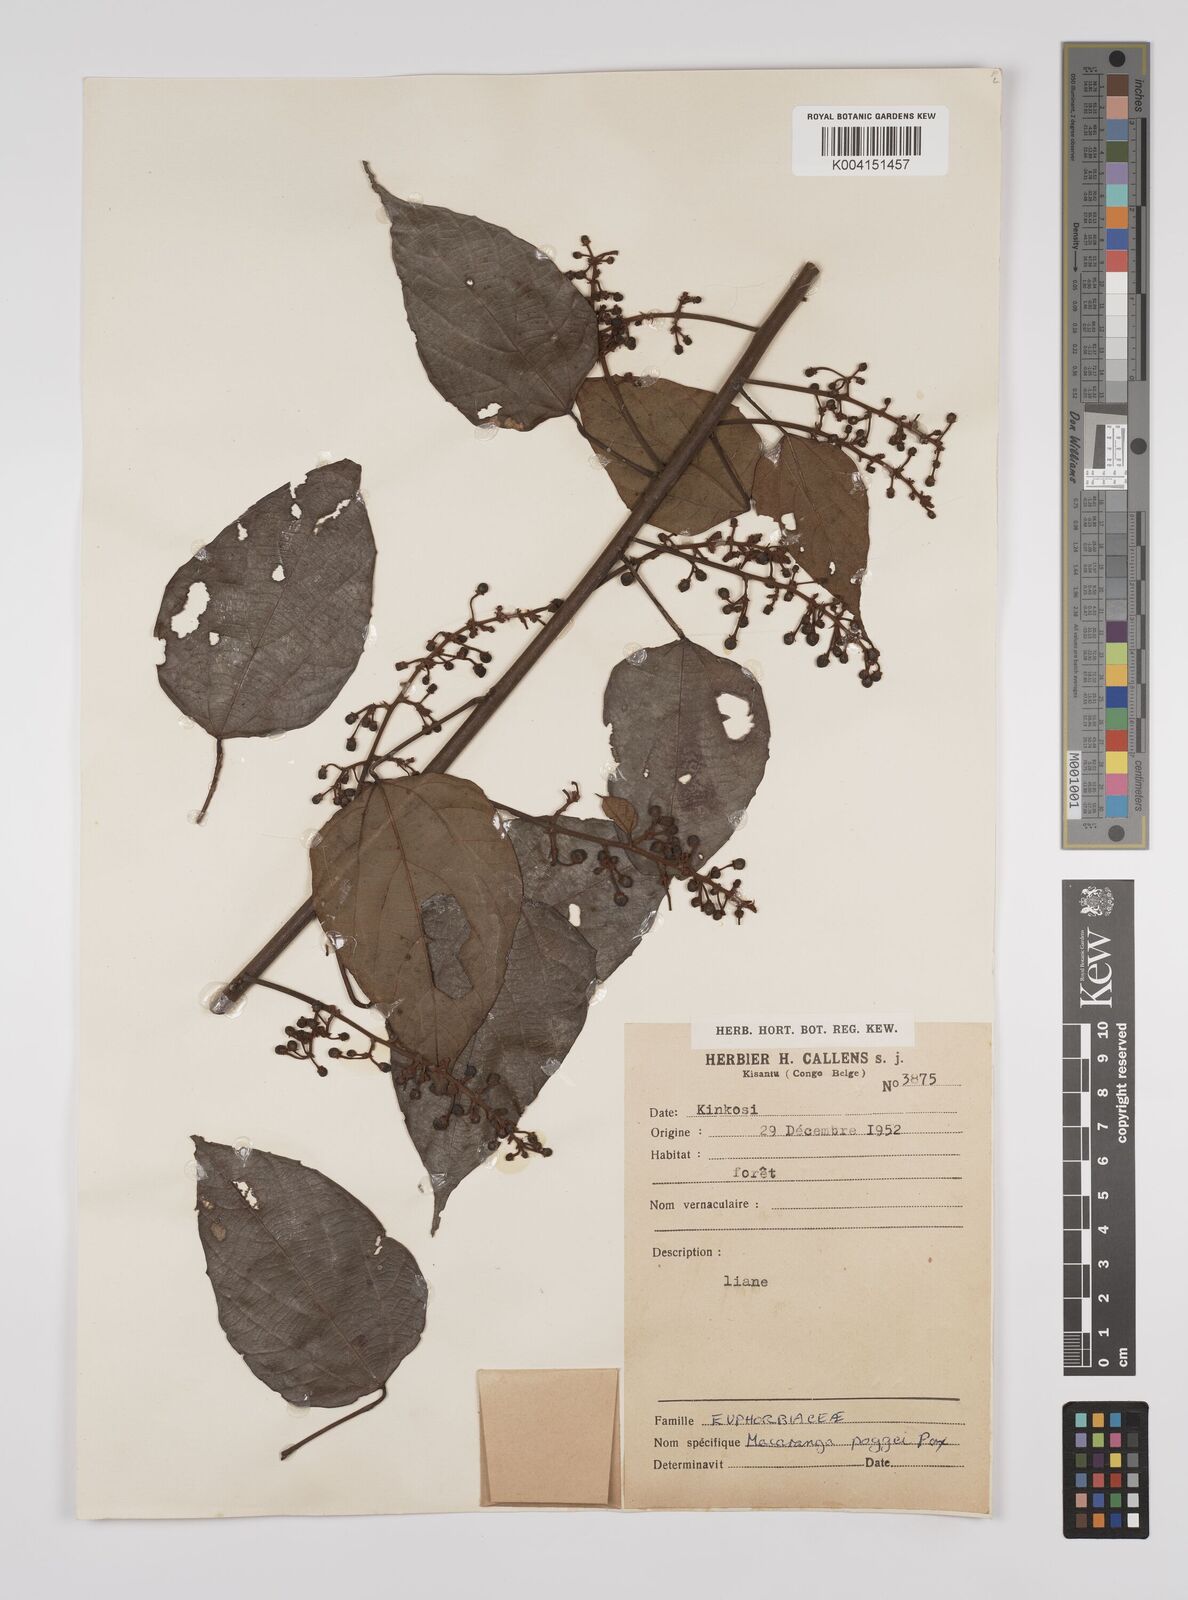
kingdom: Plantae
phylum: Tracheophyta
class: Magnoliopsida
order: Malpighiales
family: Euphorbiaceae
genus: Macaranga
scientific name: Macaranga poggei
